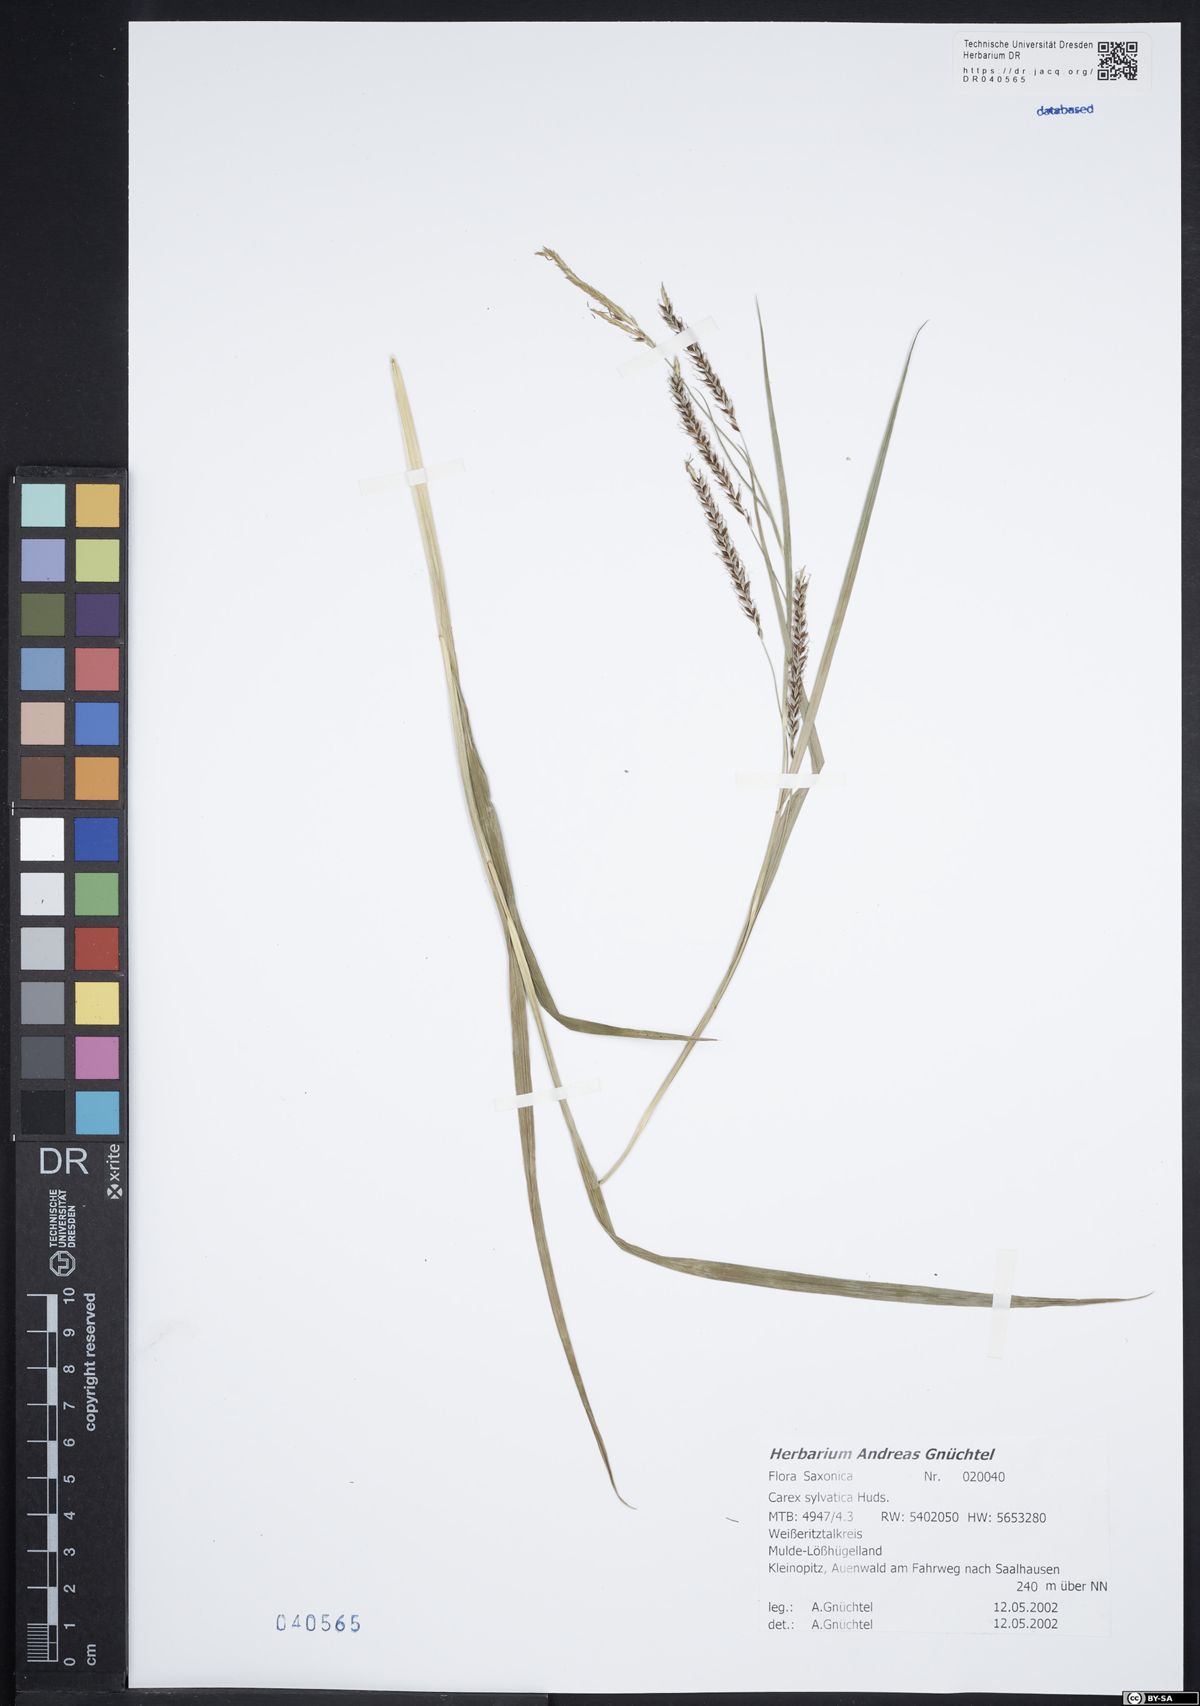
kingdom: Plantae
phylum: Tracheophyta
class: Liliopsida
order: Poales
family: Cyperaceae
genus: Carex
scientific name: Carex sylvatica
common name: Wood-sedge
